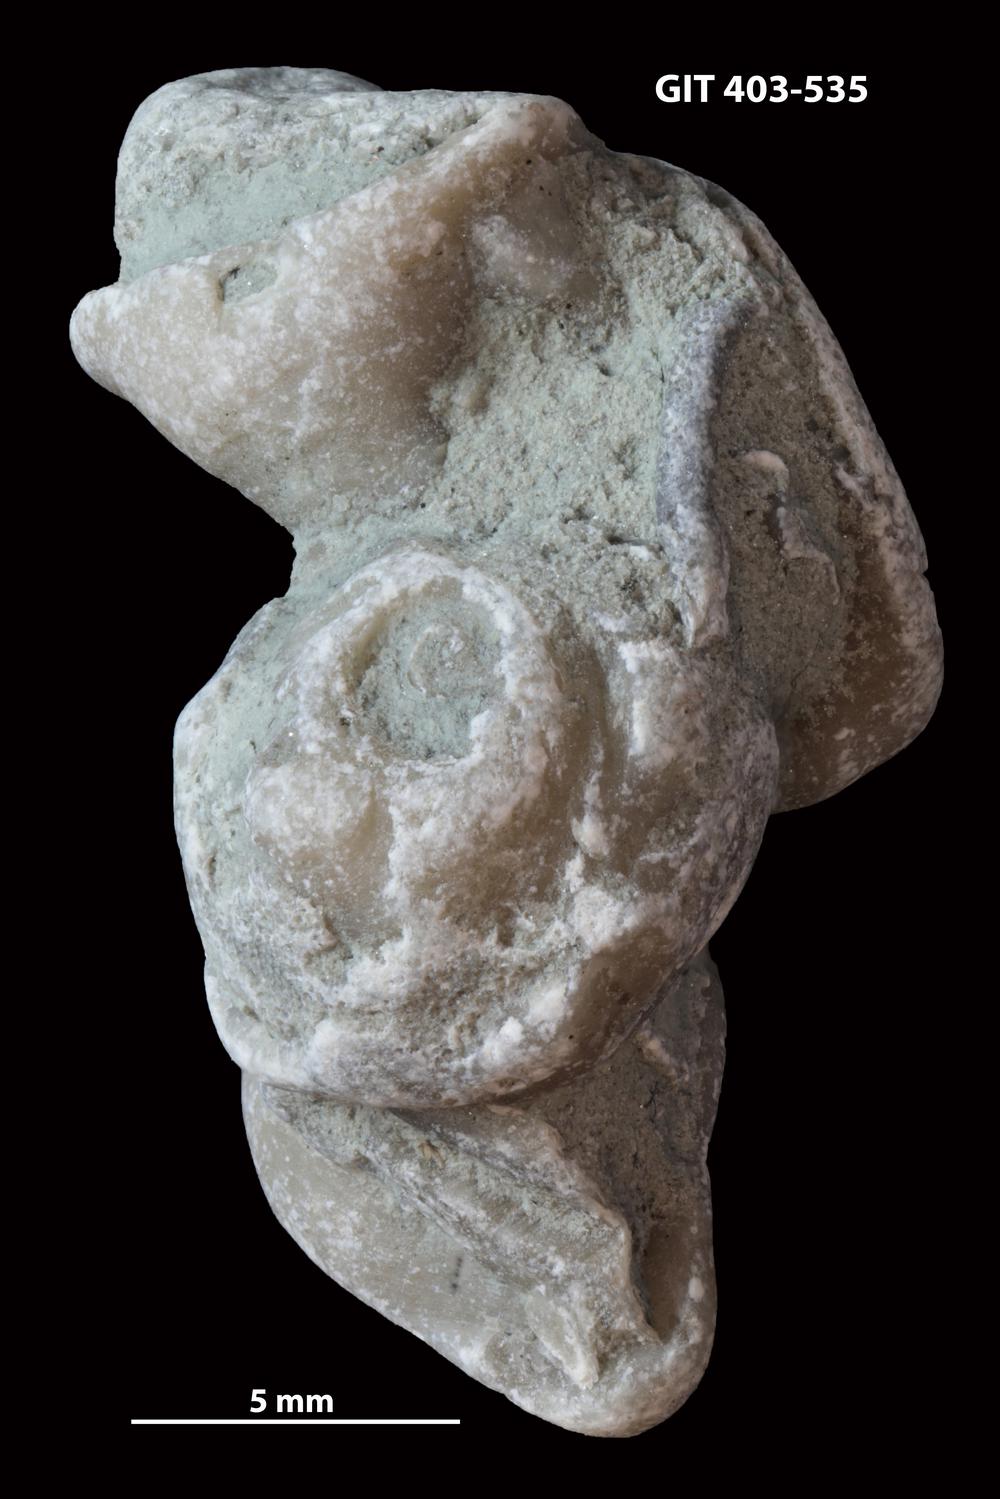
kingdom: Animalia
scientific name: Animalia
